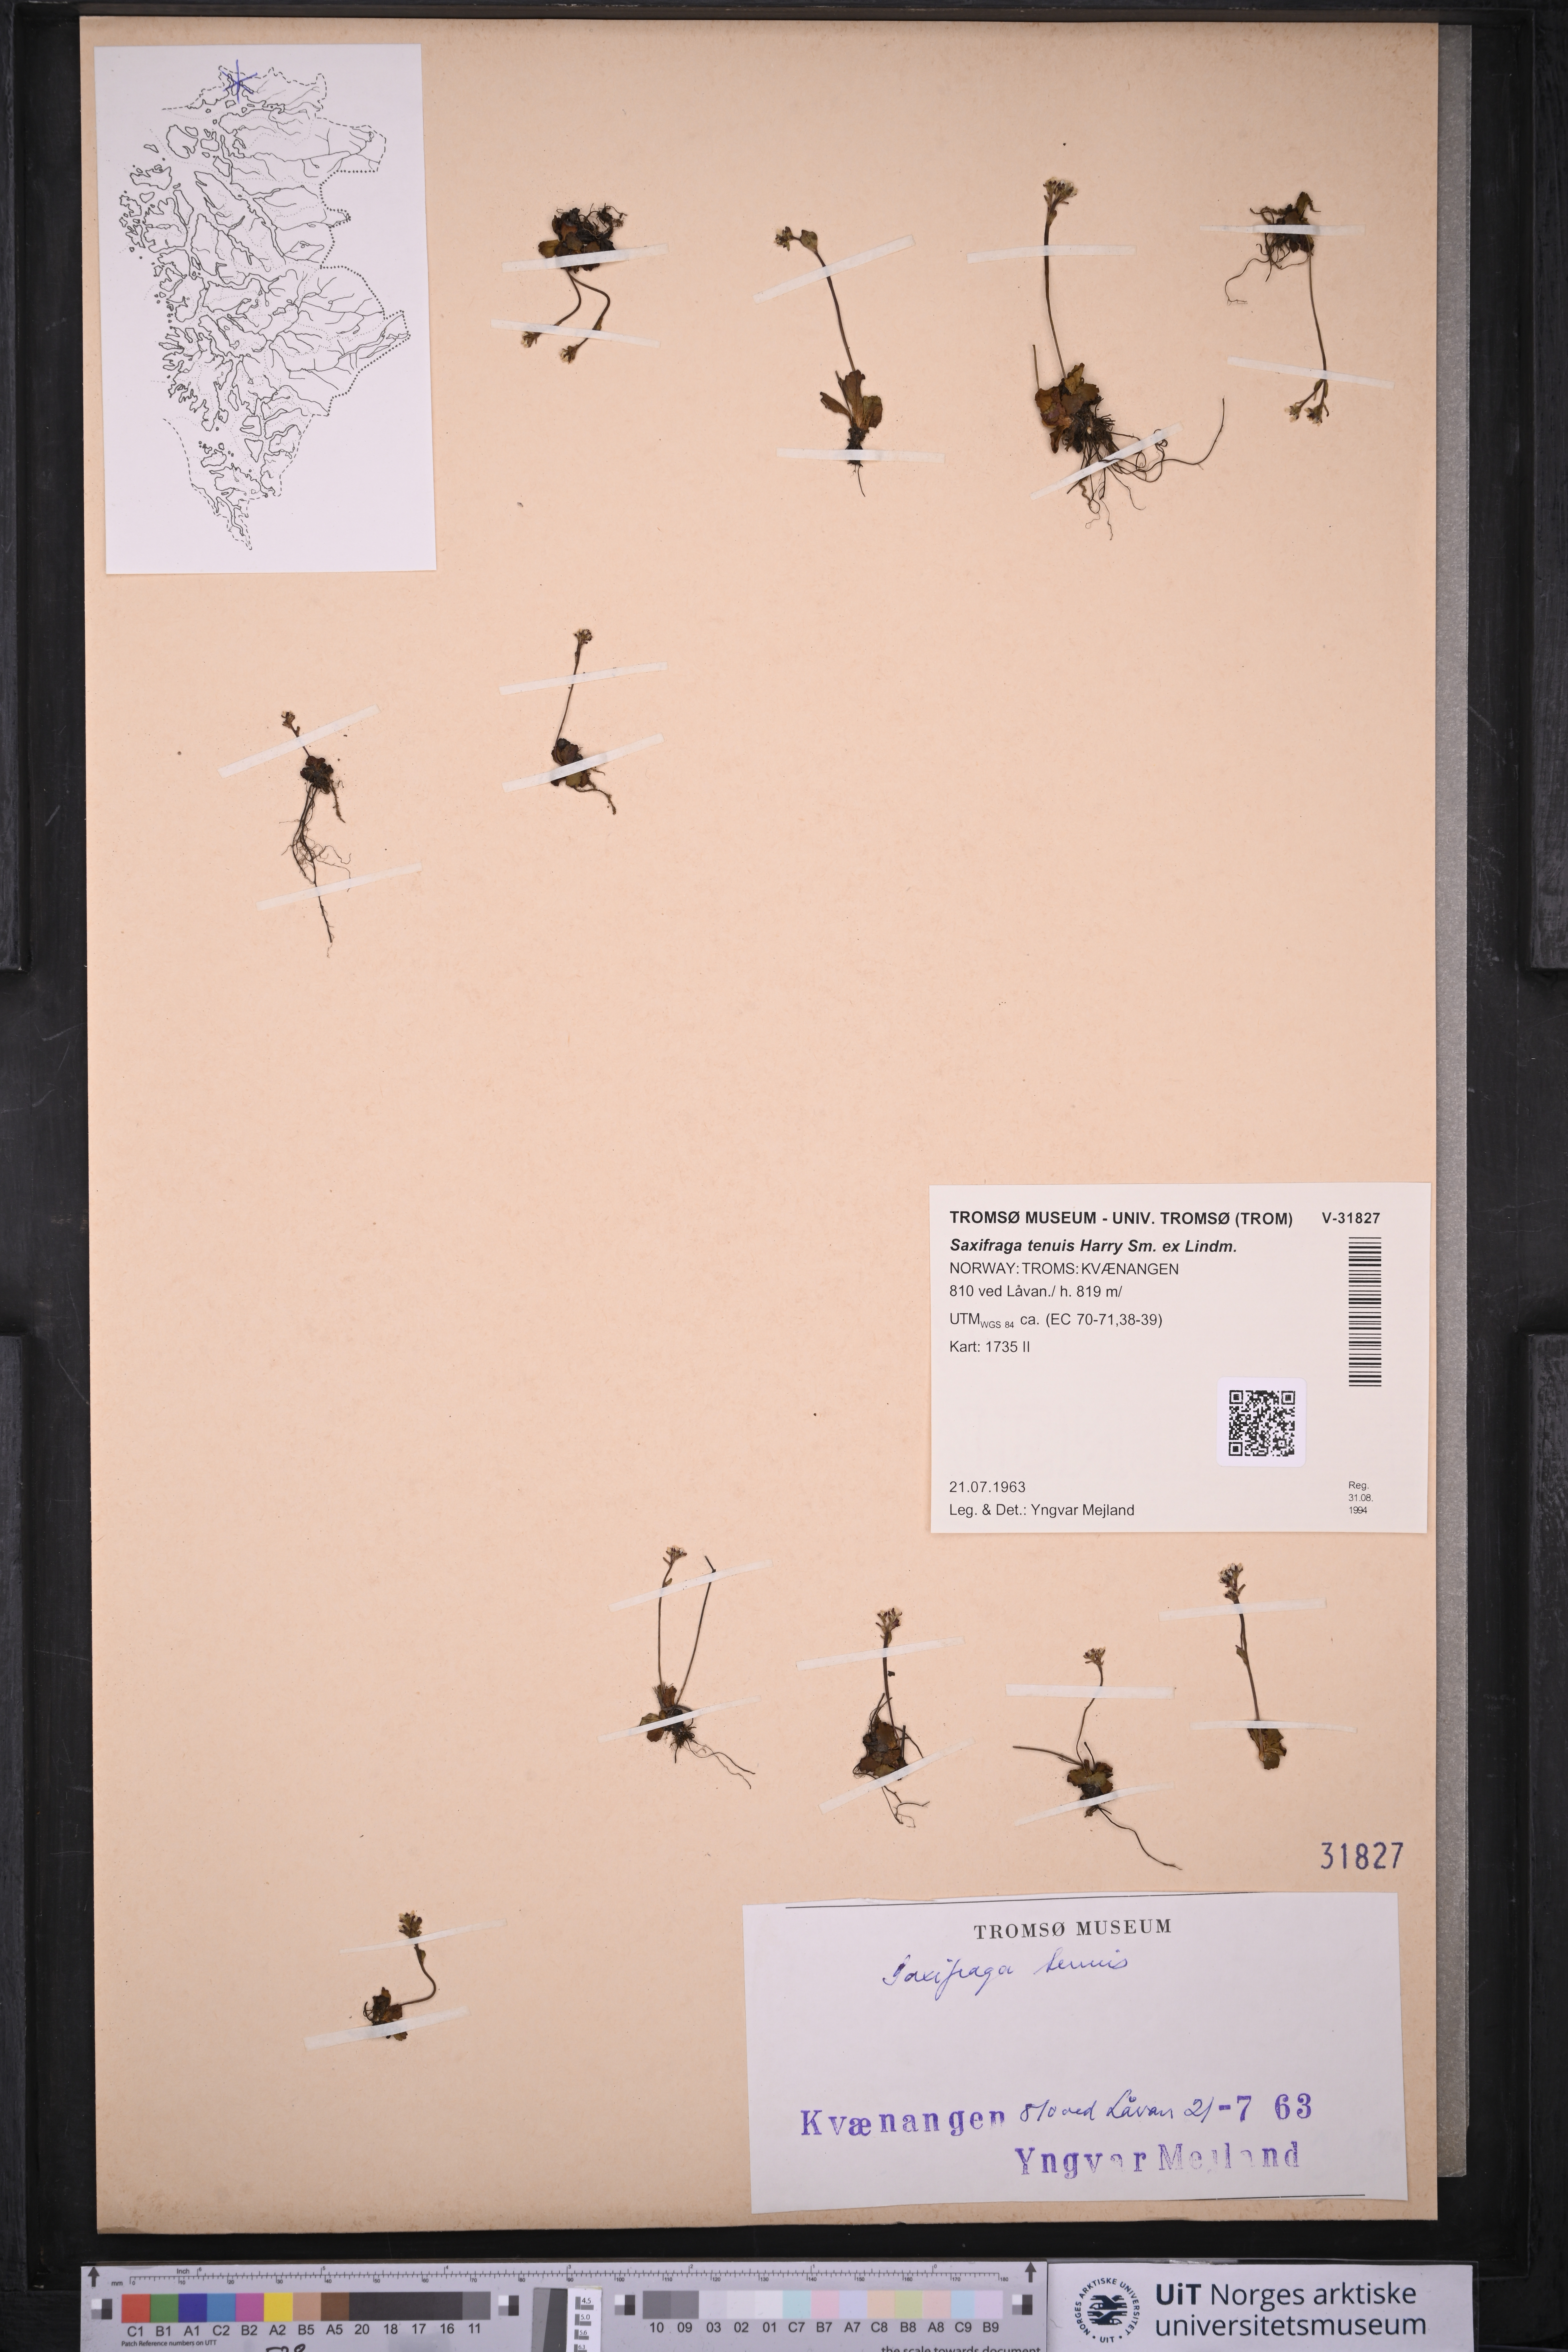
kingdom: Plantae
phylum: Tracheophyta
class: Magnoliopsida
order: Saxifragales
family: Saxifragaceae
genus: Micranthes
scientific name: Micranthes tenuis
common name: Ottertail pass saxifrage
